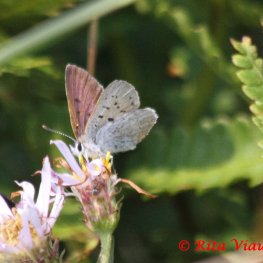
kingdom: Animalia
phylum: Arthropoda
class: Insecta
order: Lepidoptera
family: Sesiidae
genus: Sesia
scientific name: Sesia Lycaena epixanthe
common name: Bog Copper
